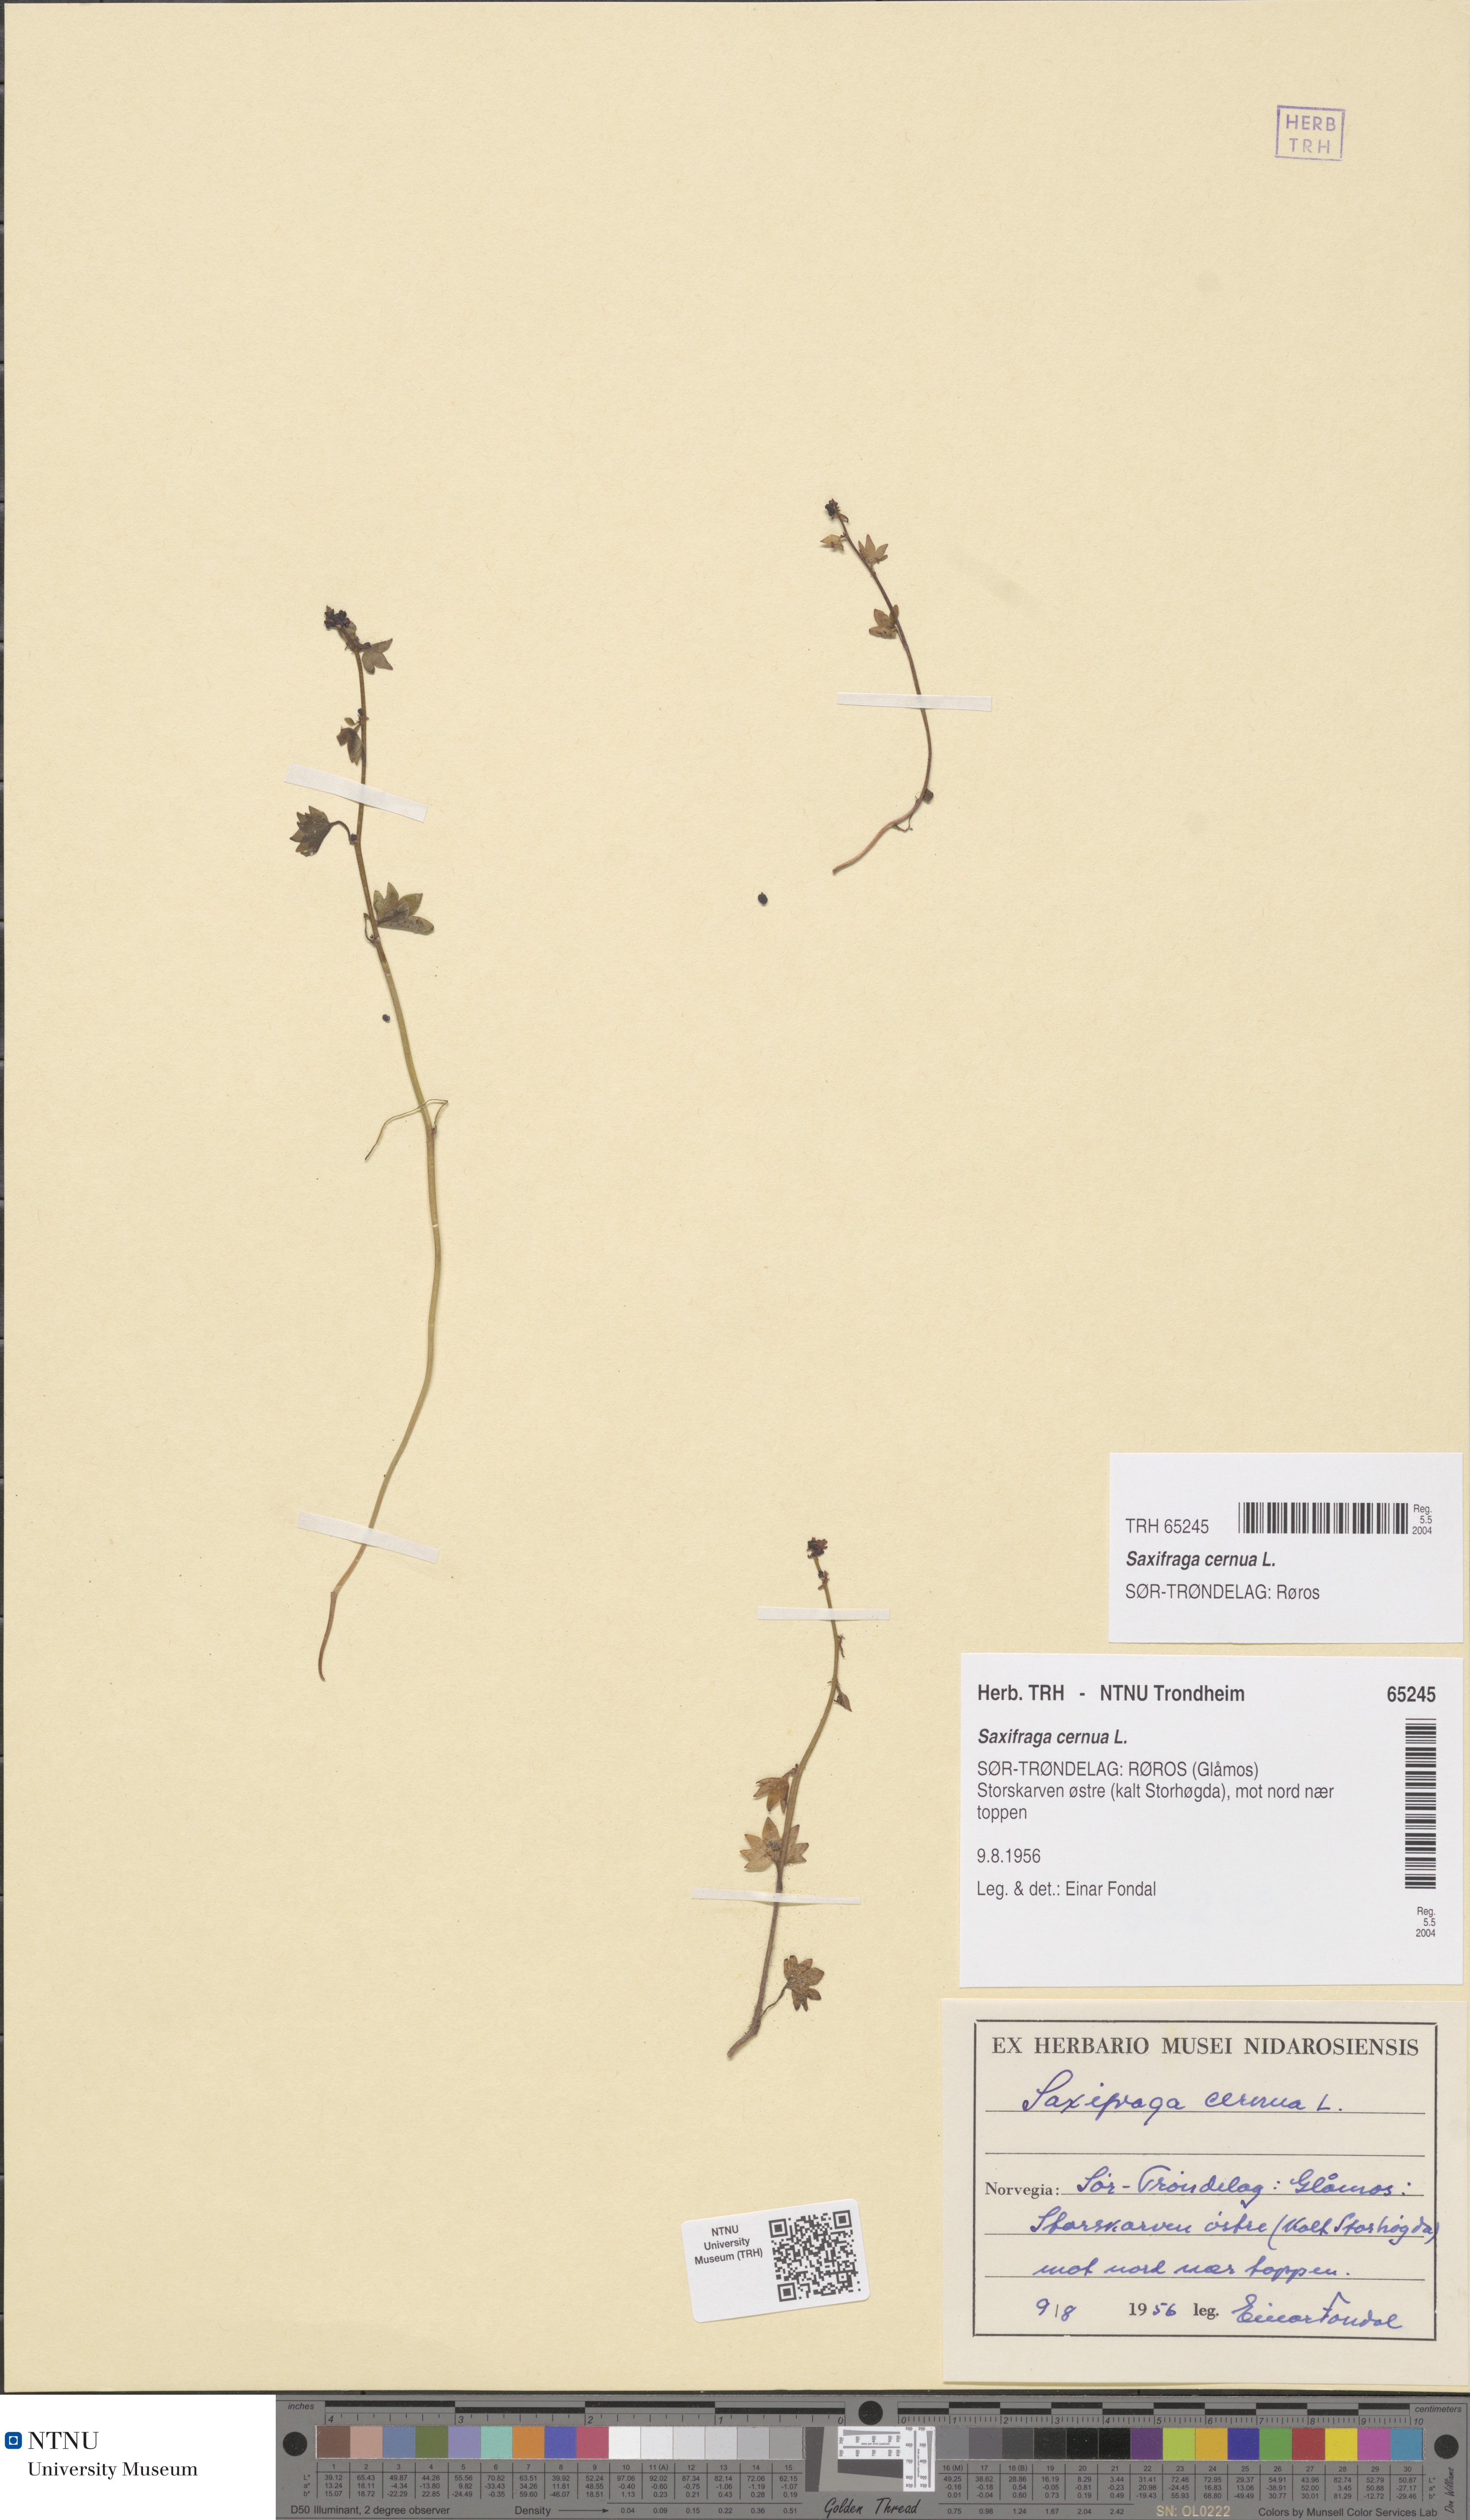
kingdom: Plantae
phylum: Tracheophyta
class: Magnoliopsida
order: Saxifragales
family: Saxifragaceae
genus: Saxifraga
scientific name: Saxifraga cernua
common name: Drooping saxifrage
